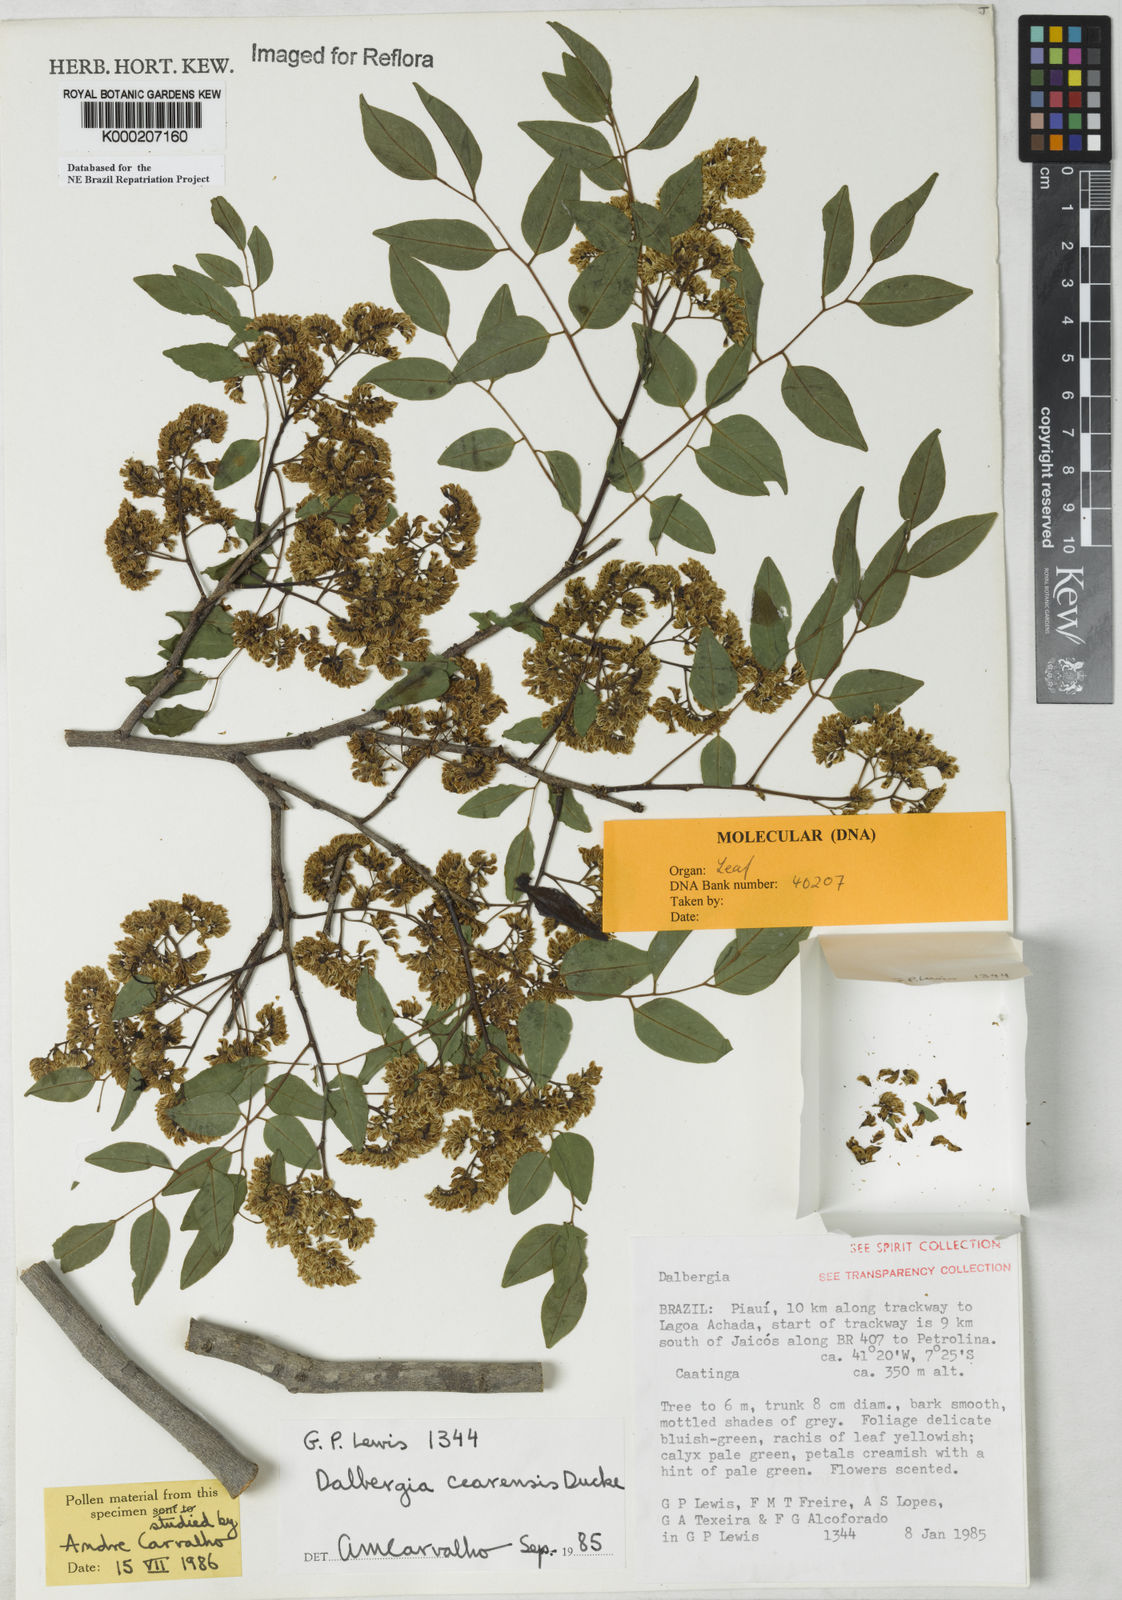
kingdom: Plantae
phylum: Tracheophyta
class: Magnoliopsida
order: Fabales
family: Fabaceae
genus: Dalbergia
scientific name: Dalbergia cearensis
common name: Brazilian-king-wood
